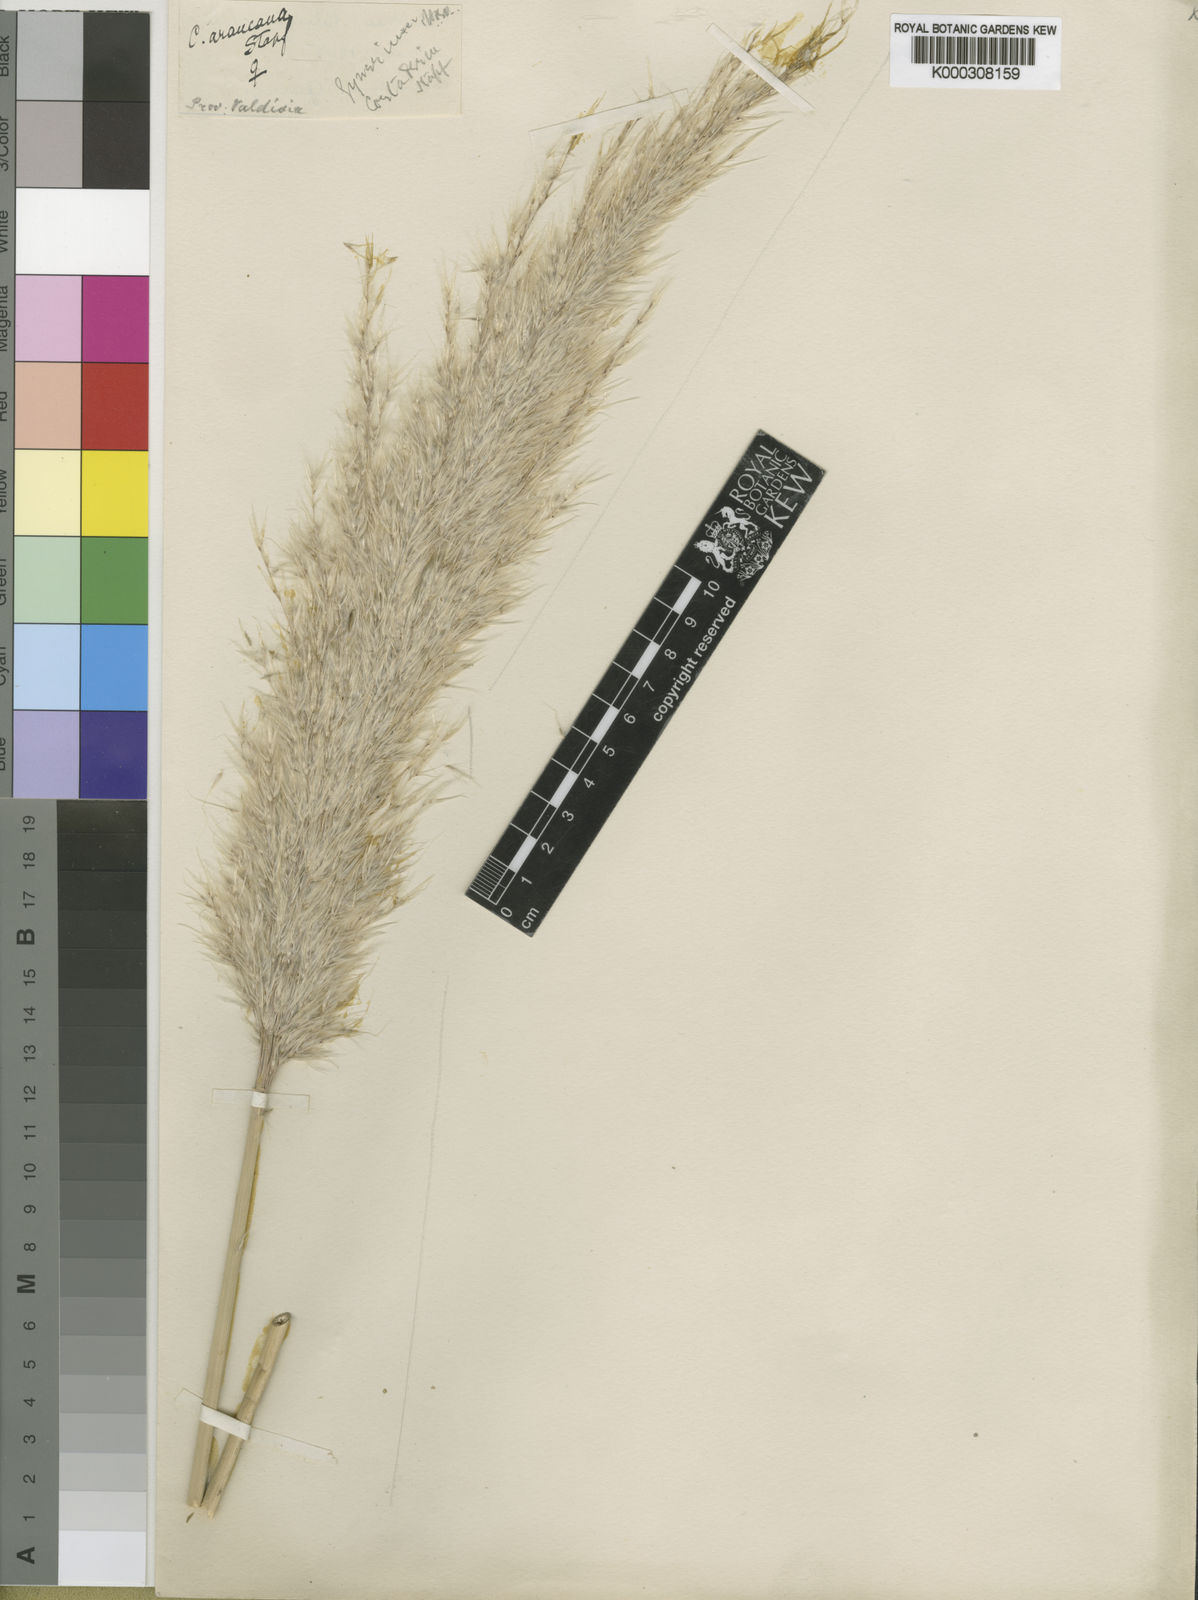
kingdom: Plantae
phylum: Tracheophyta
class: Liliopsida
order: Poales
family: Poaceae
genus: Cortaderia
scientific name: Cortaderia egmontiana
